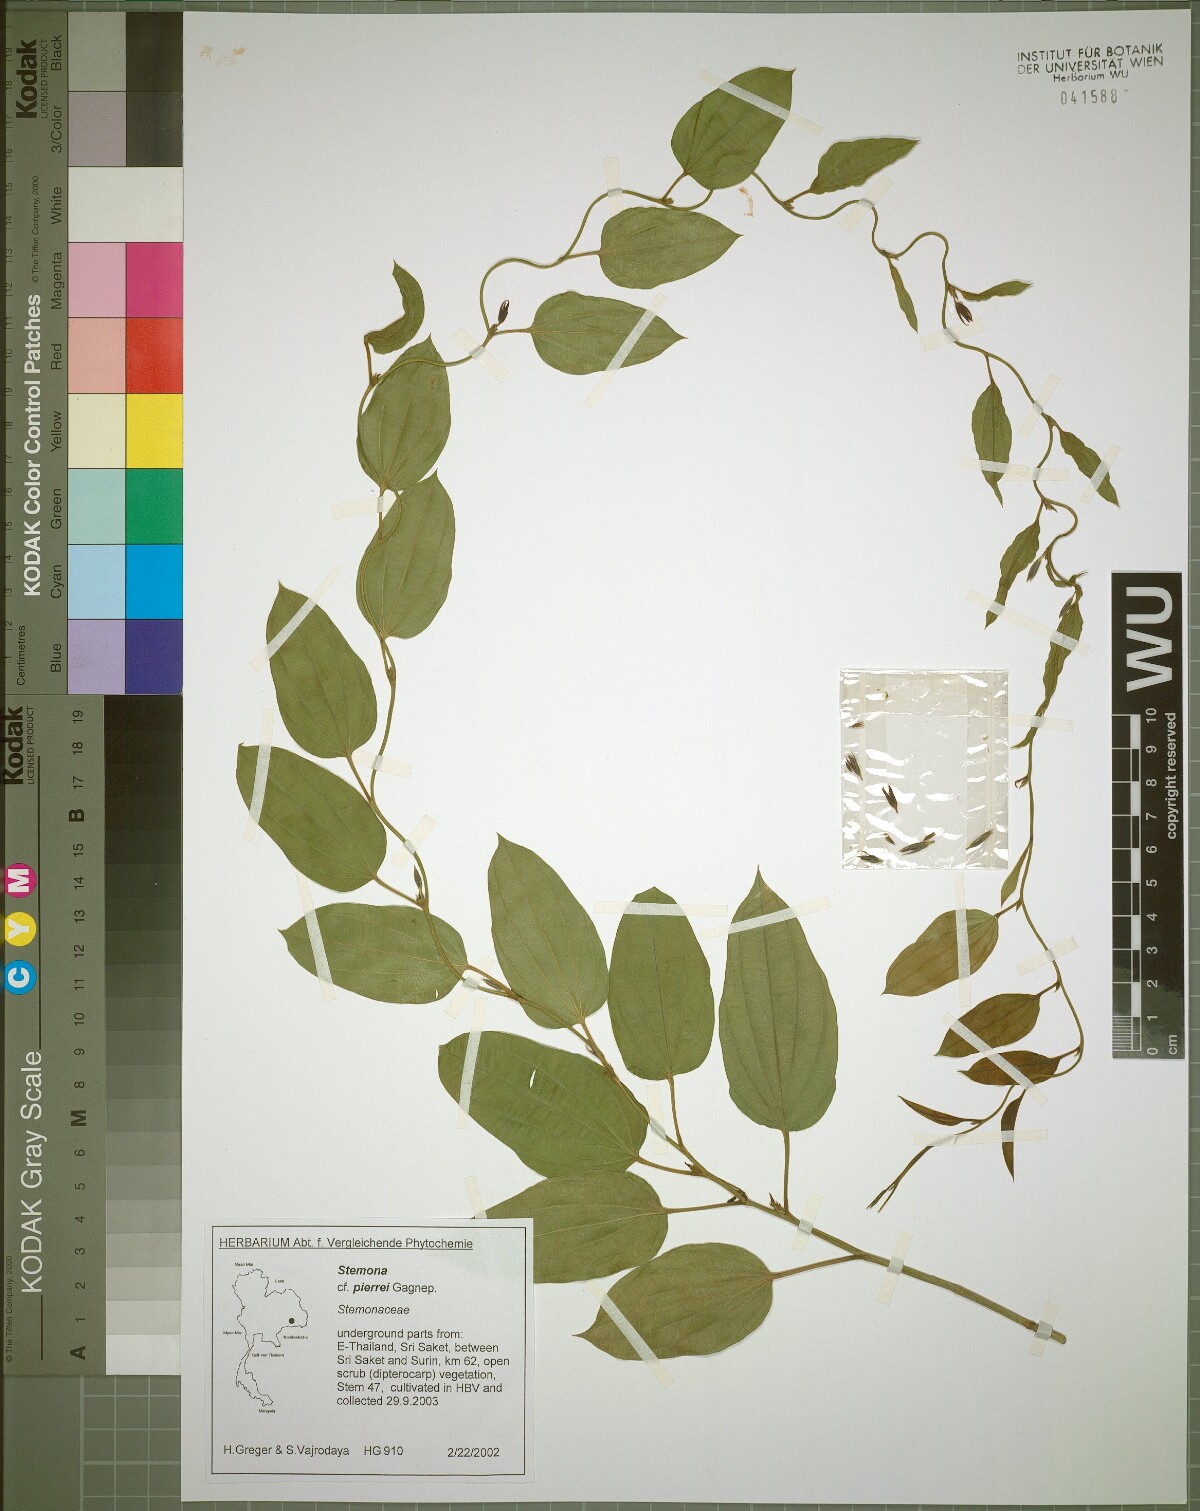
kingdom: Plantae
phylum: Tracheophyta
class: Liliopsida
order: Pandanales
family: Stemonaceae
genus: Stemona
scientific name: Stemona pierrei
